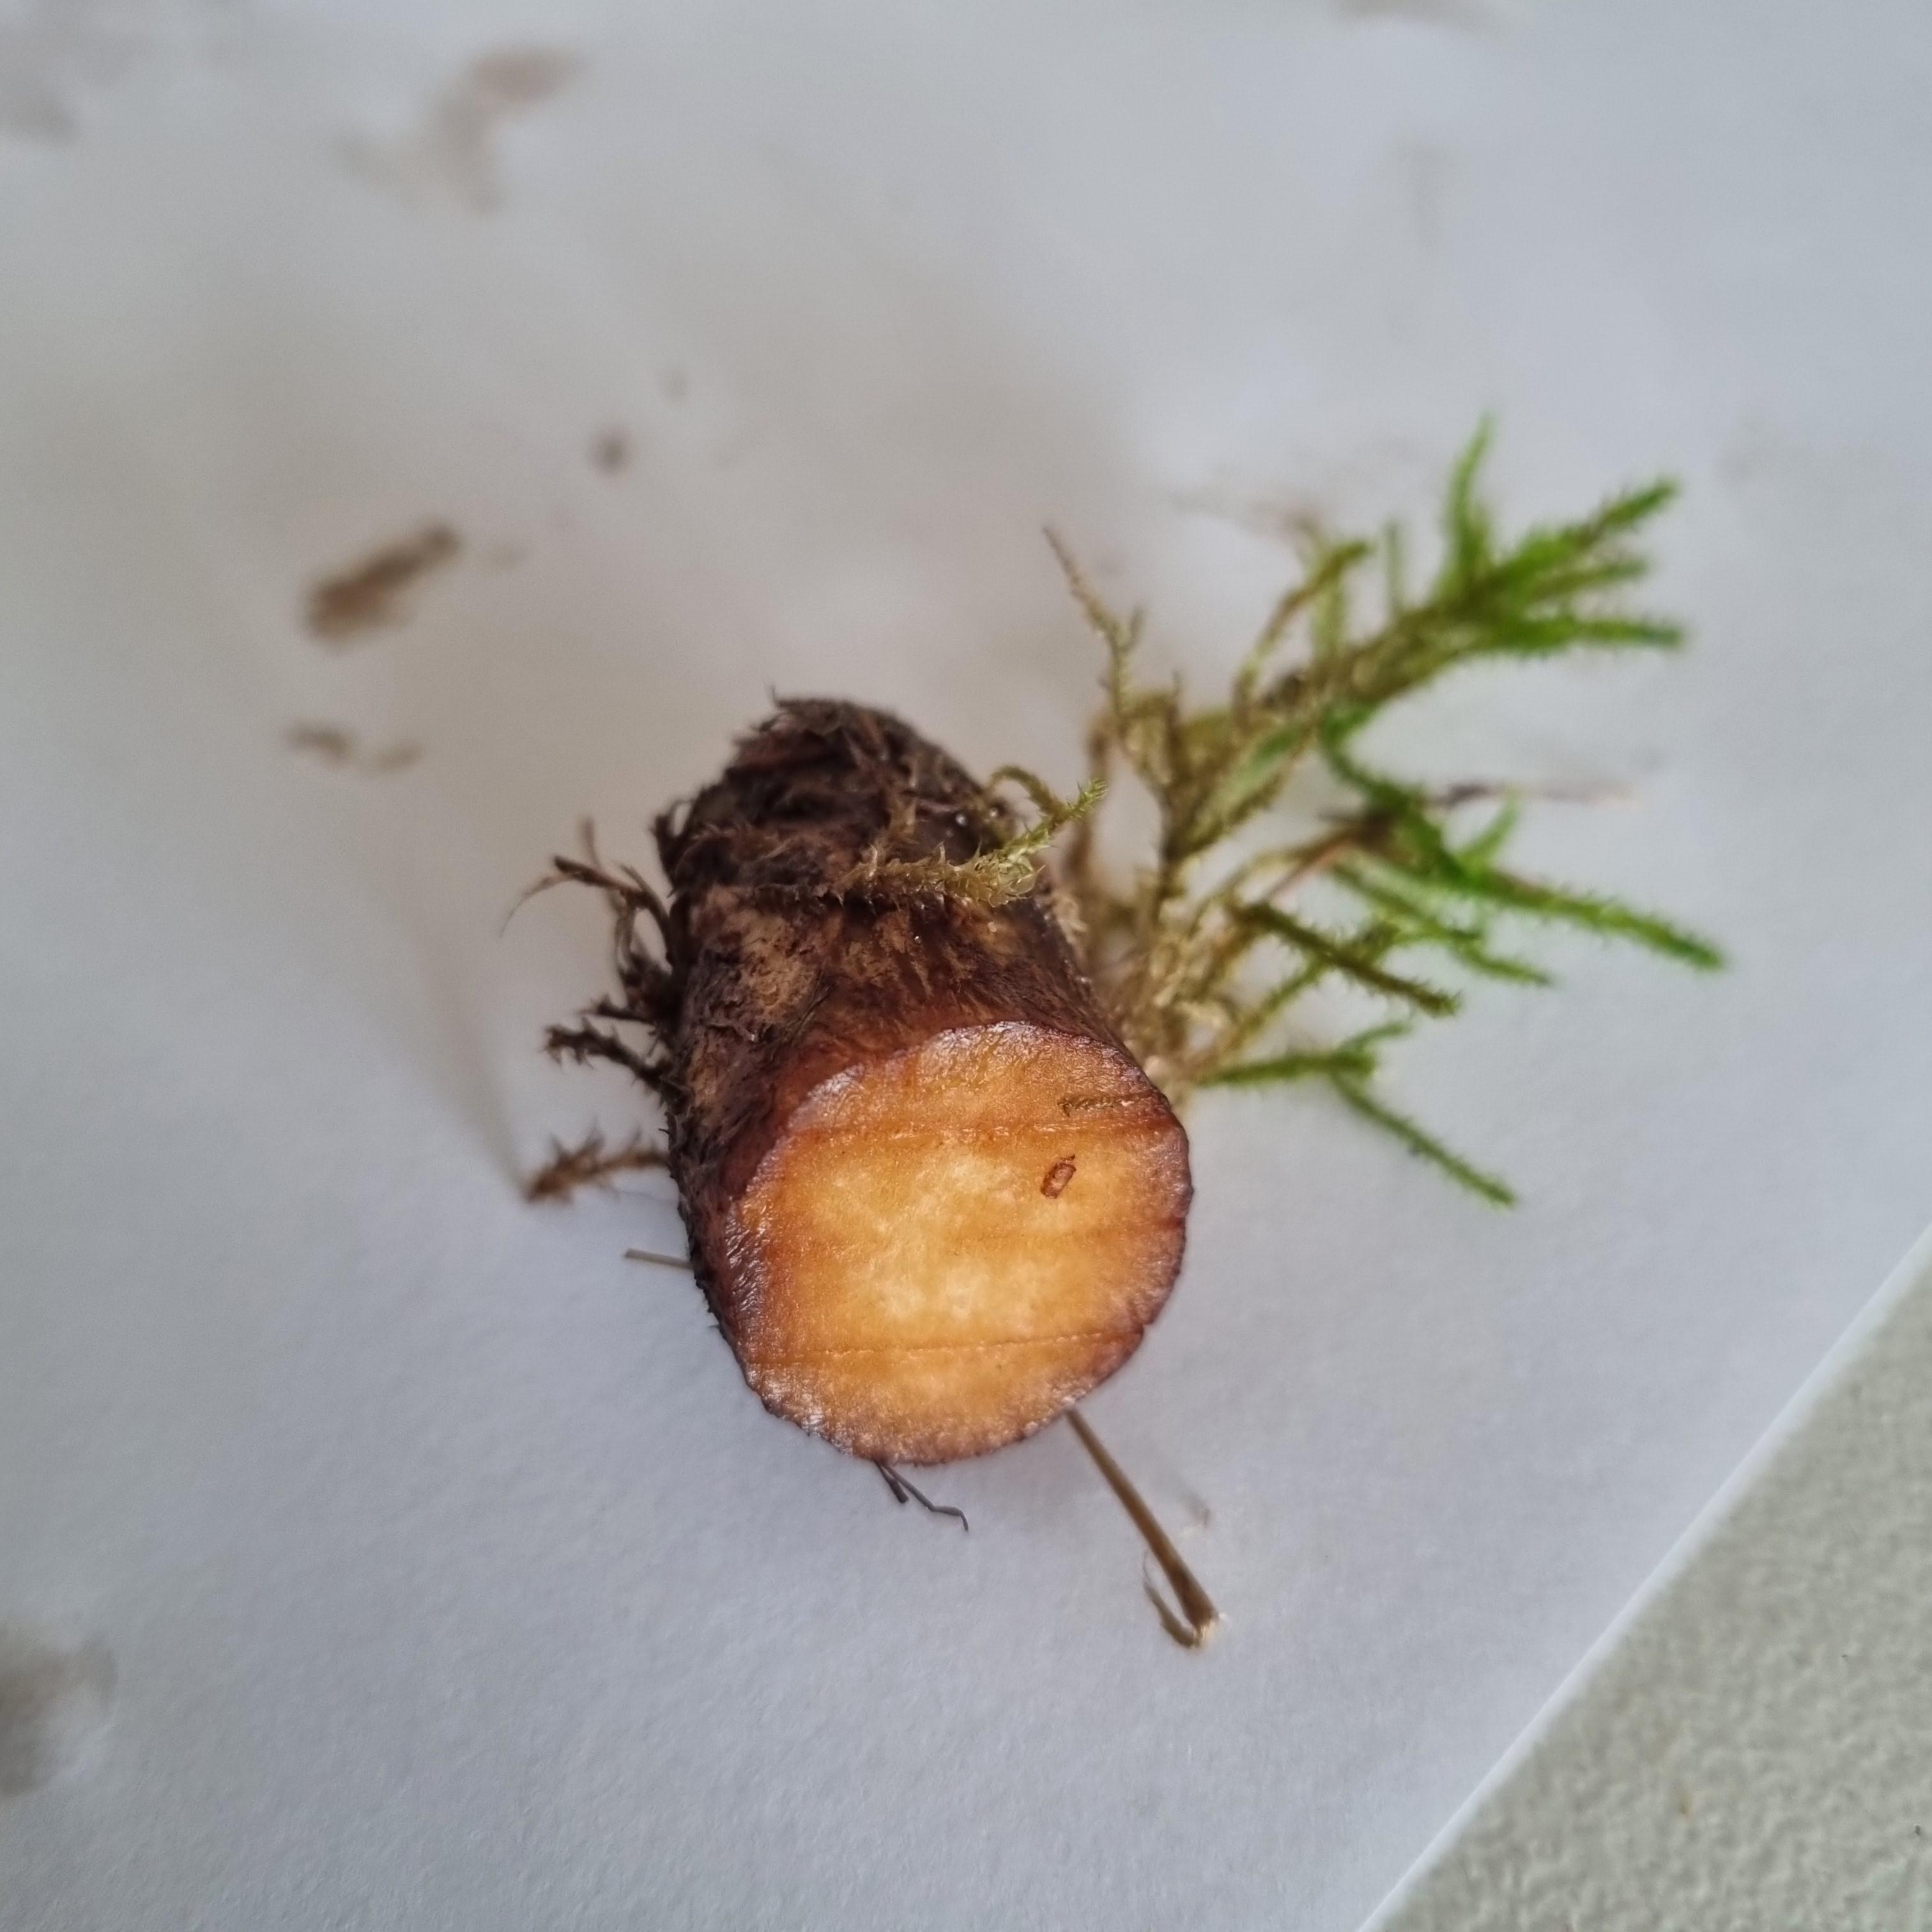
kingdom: Fungi
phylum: Basidiomycota
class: Agaricomycetes
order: Boletales
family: Paxillaceae
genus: Paxillus
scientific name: Paxillus obscurisporus
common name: mahognisporet netbladhat
